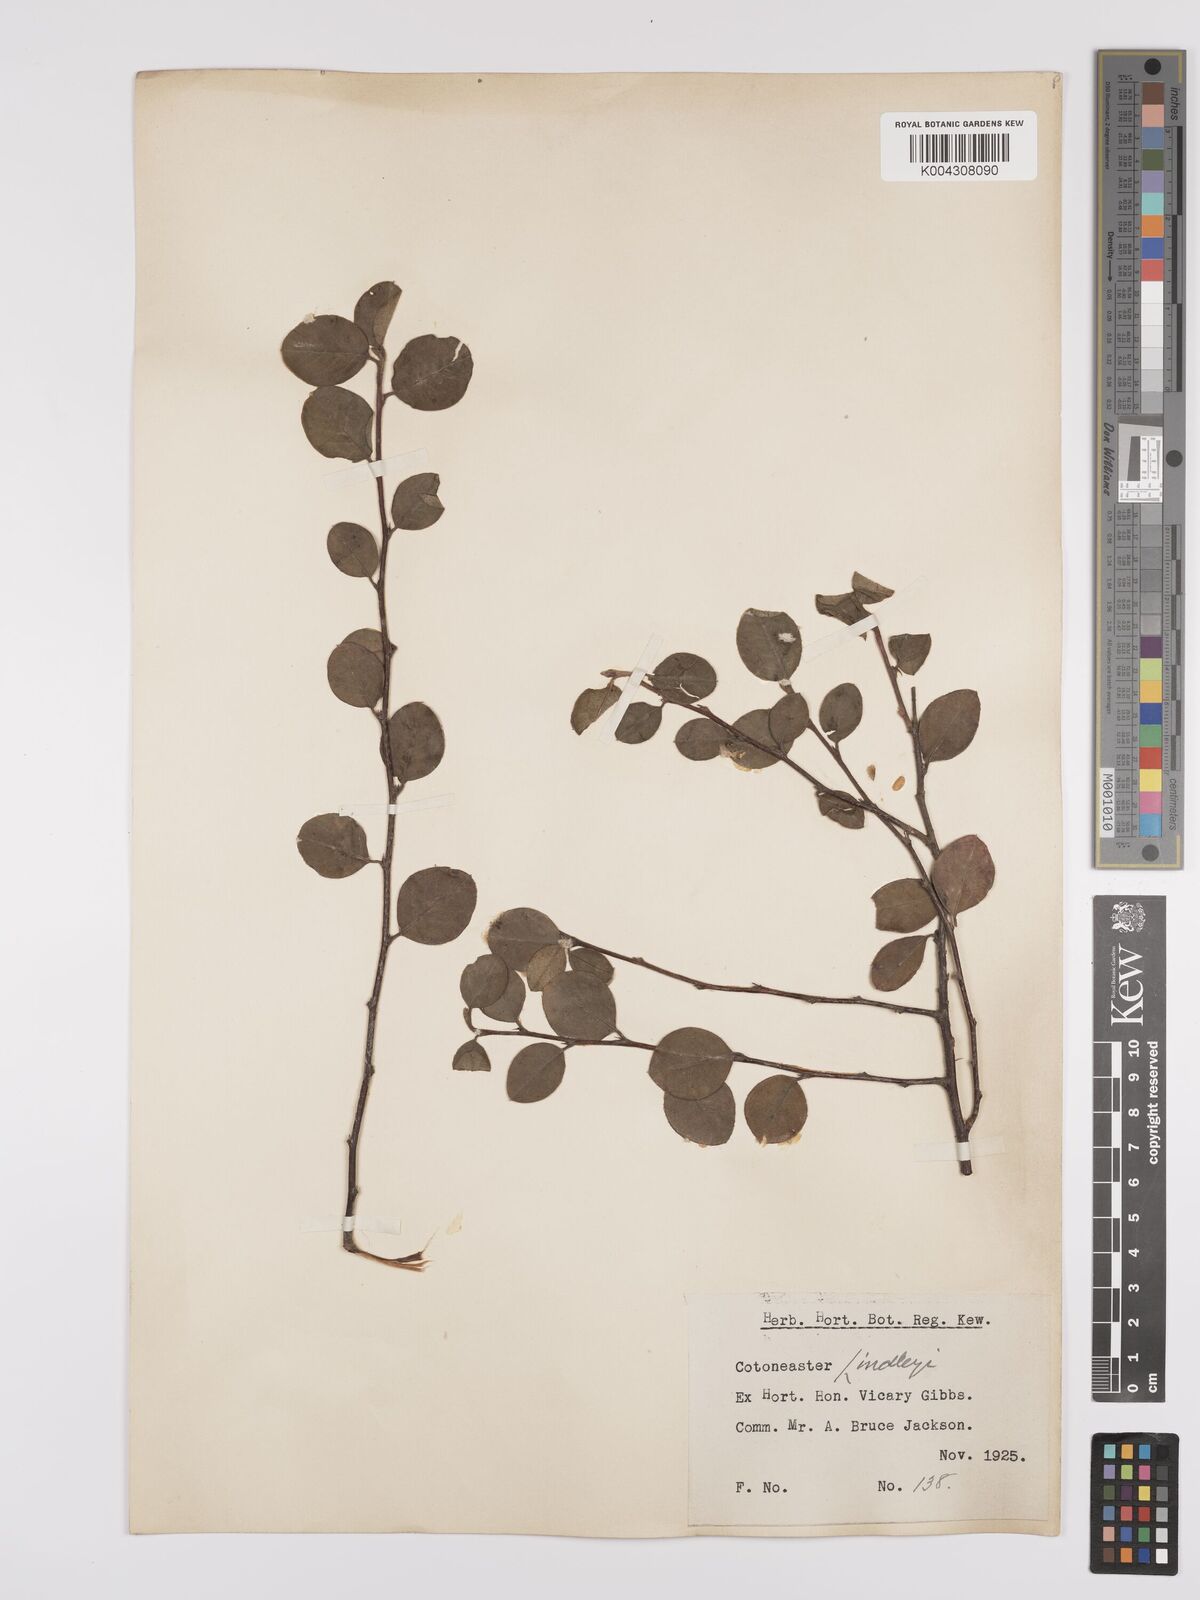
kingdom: Plantae
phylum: Tracheophyta
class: Magnoliopsida
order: Rosales
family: Rosaceae
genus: Cotoneaster
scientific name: Cotoneaster lindleyi
